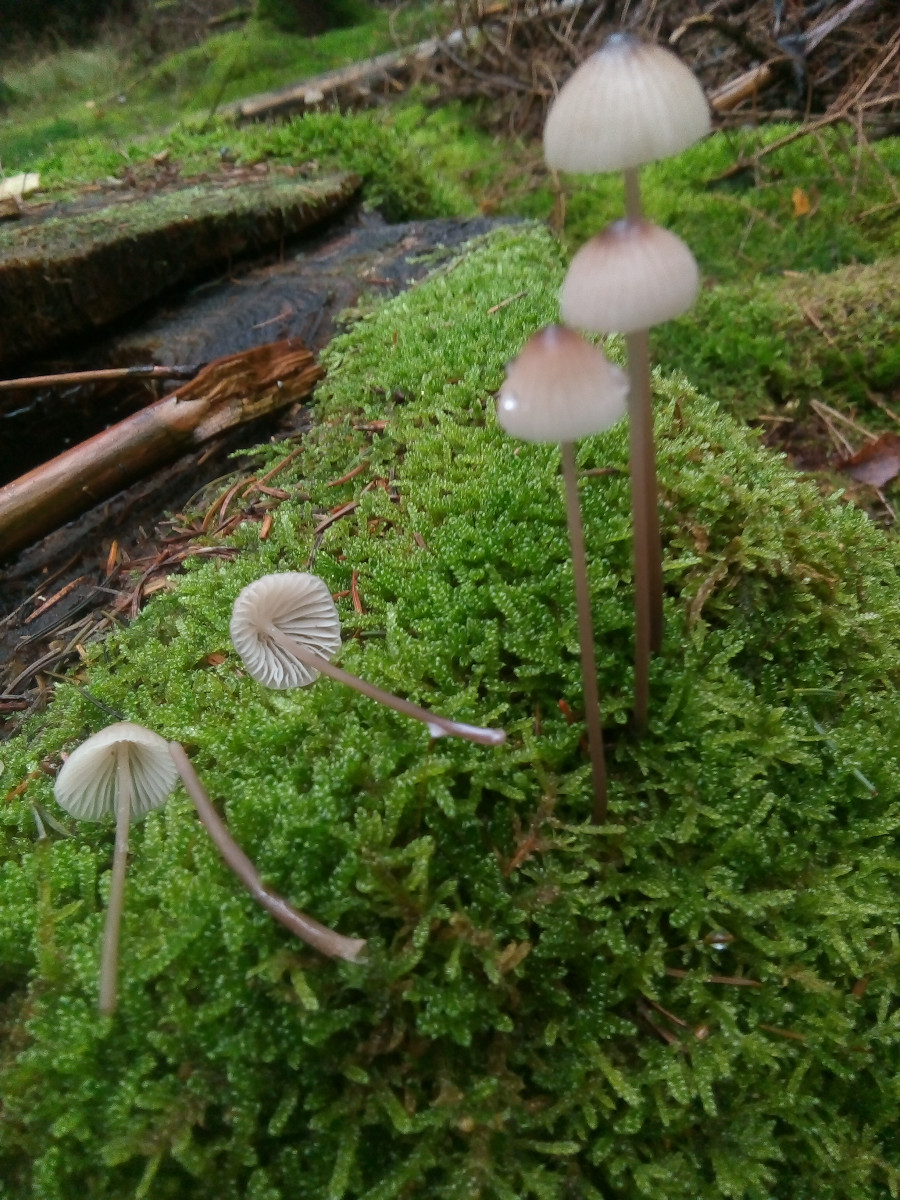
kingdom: Fungi
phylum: Basidiomycota
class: Agaricomycetes
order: Agaricales
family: Mycenaceae
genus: Mycena
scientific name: Mycena galopus
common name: hvidmælket huesvamp
